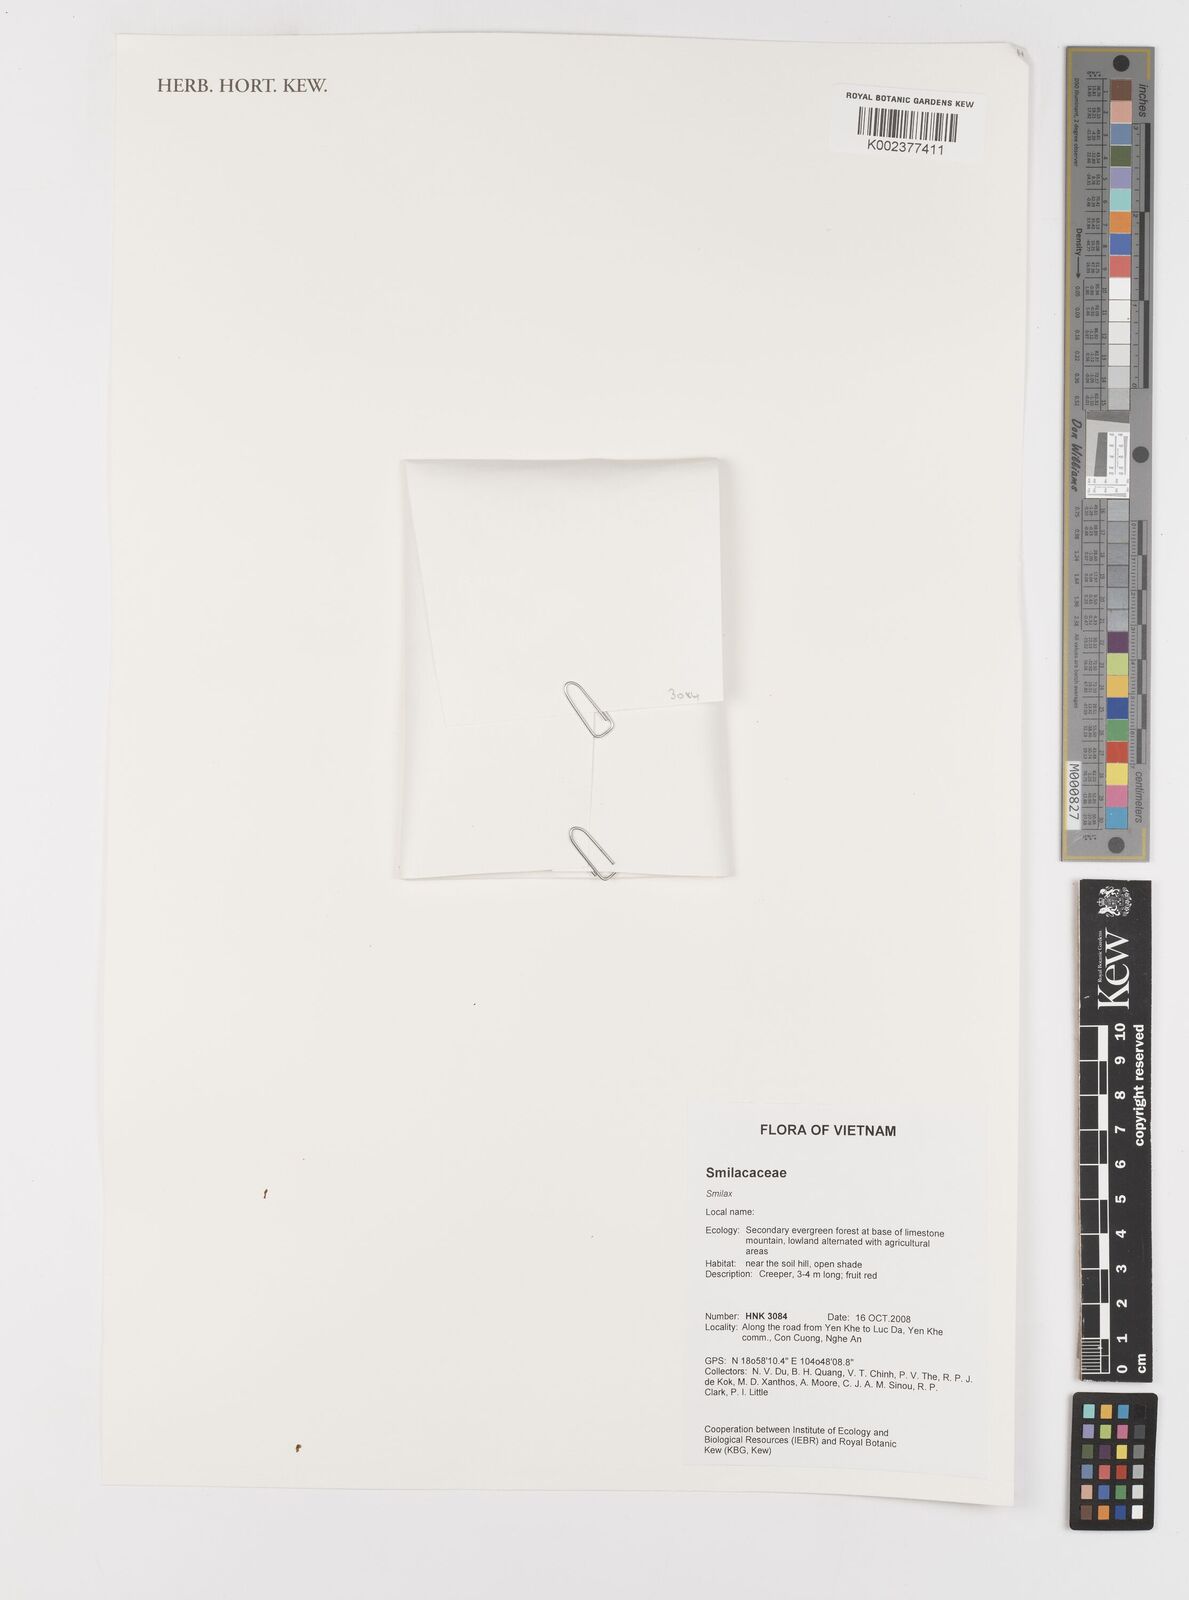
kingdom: Plantae
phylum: Tracheophyta
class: Liliopsida
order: Liliales
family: Smilacaceae
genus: Smilax
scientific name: Smilax
